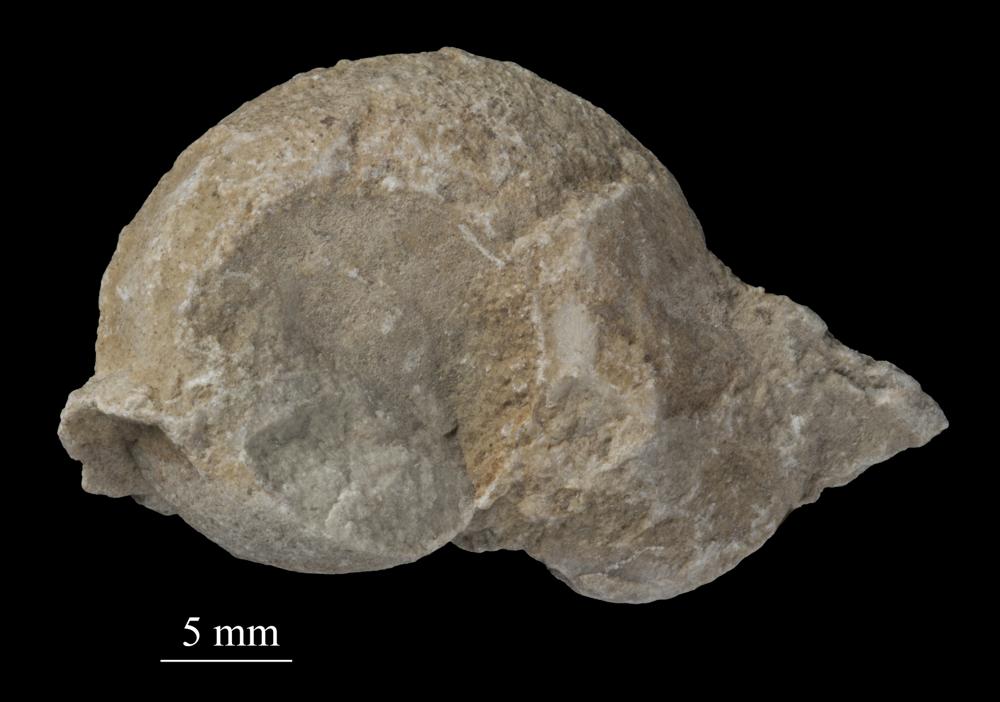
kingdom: Animalia
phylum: Mollusca
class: Gastropoda
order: Pleurotomariida
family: Pleurotomariidae
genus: Pleurotomaria
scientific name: Pleurotomaria
